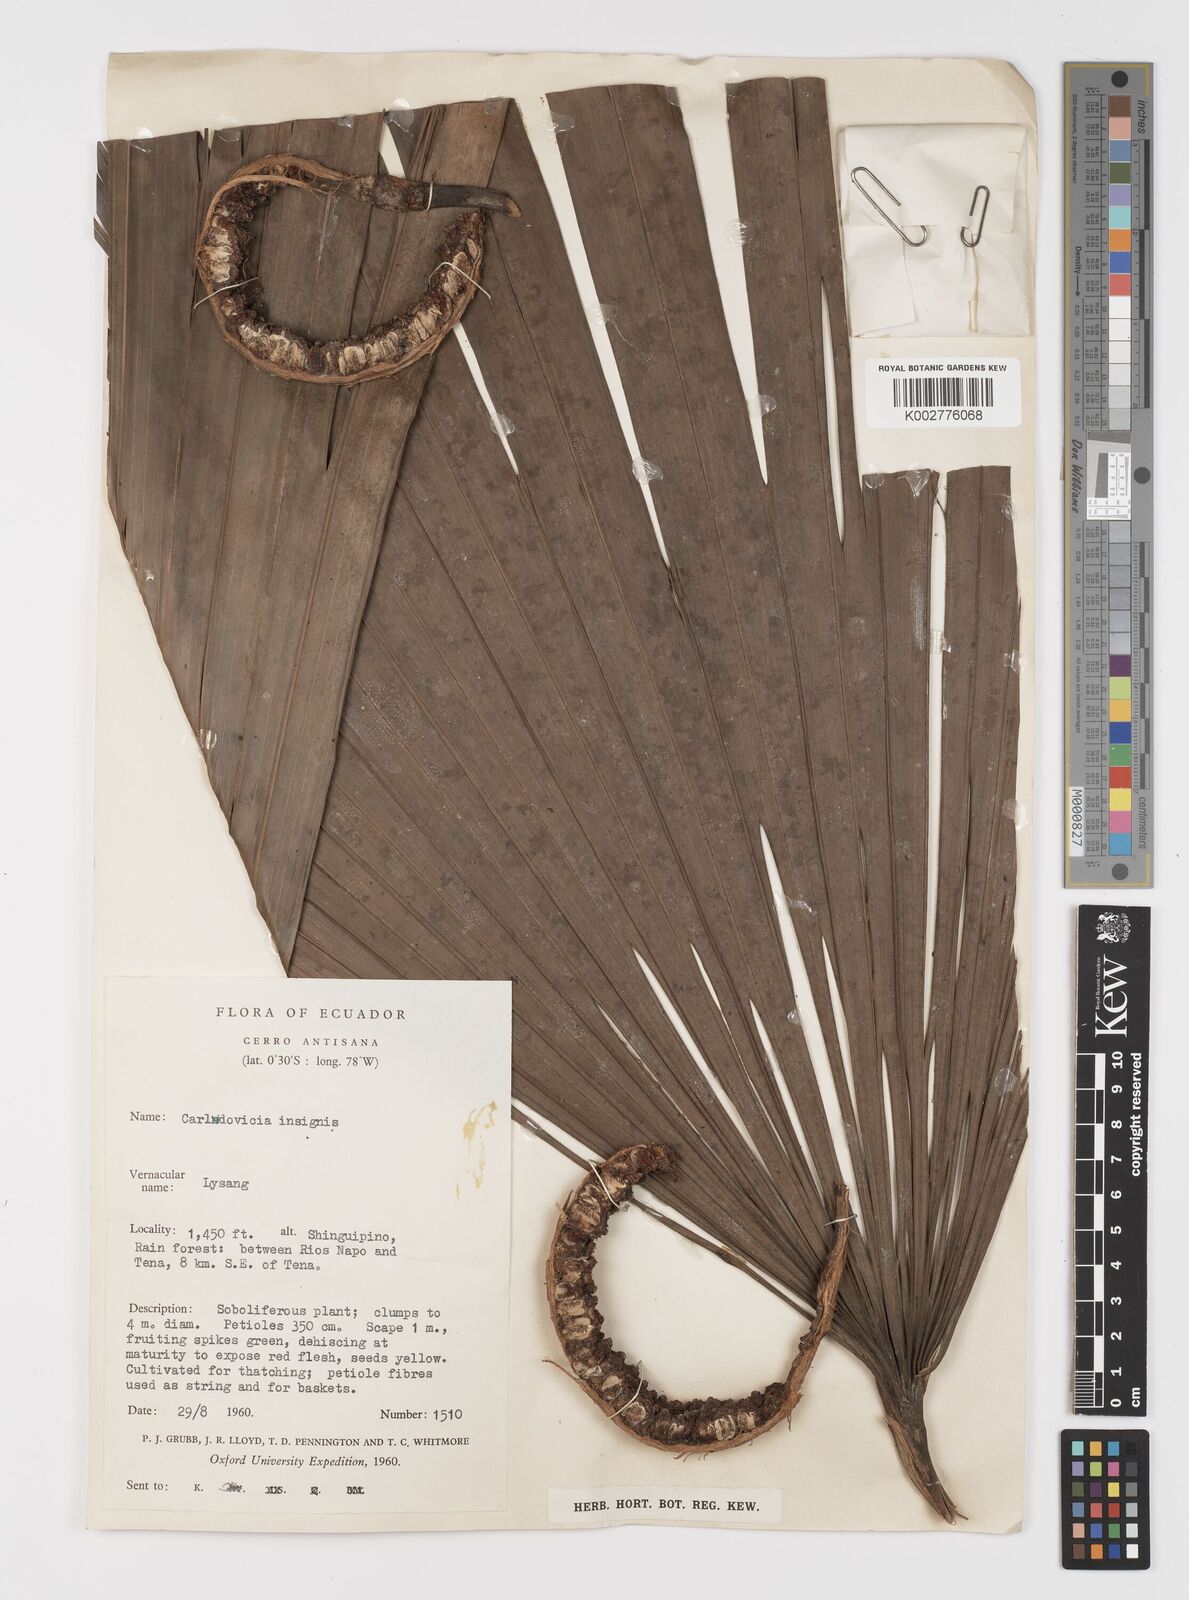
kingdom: Plantae
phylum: Tracheophyta
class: Liliopsida
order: Pandanales
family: Cyclanthaceae
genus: Asplundia
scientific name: Asplundia
